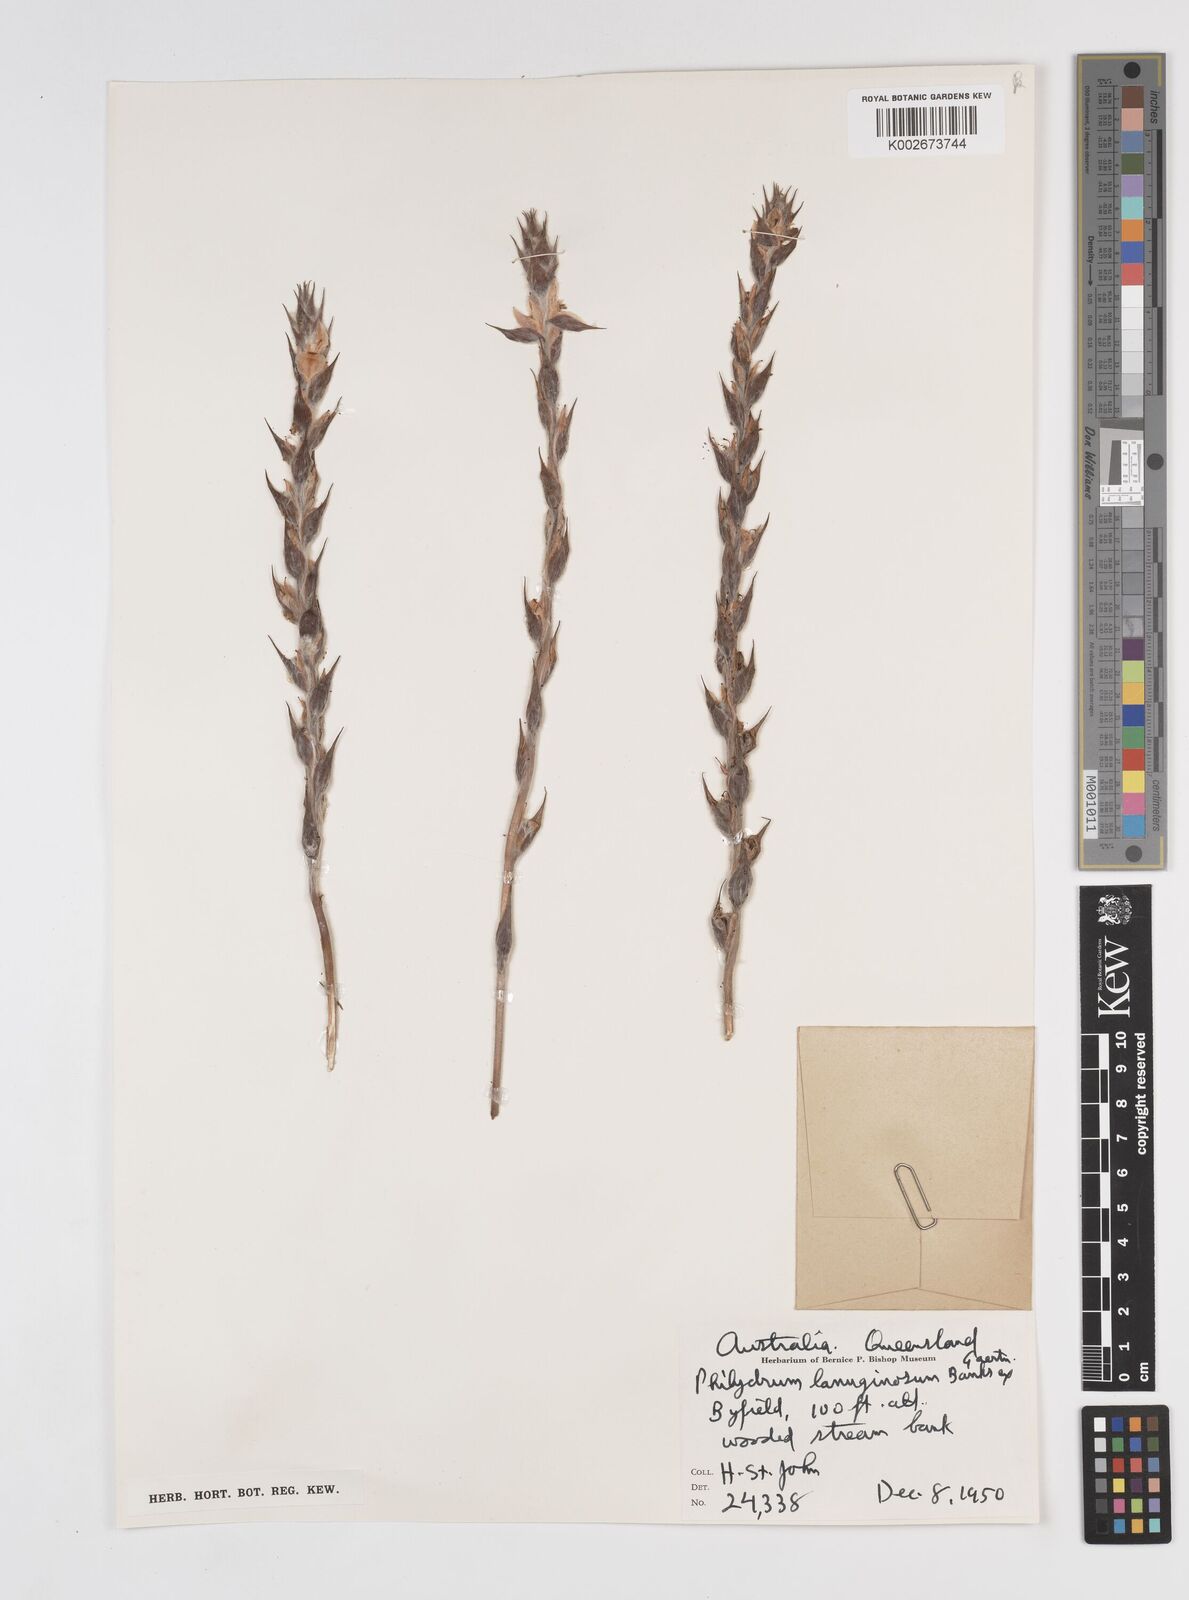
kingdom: Plantae
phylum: Tracheophyta
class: Liliopsida
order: Commelinales
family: Philydraceae
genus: Philydrum
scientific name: Philydrum lanuginosum
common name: Woolly frog's mouth
